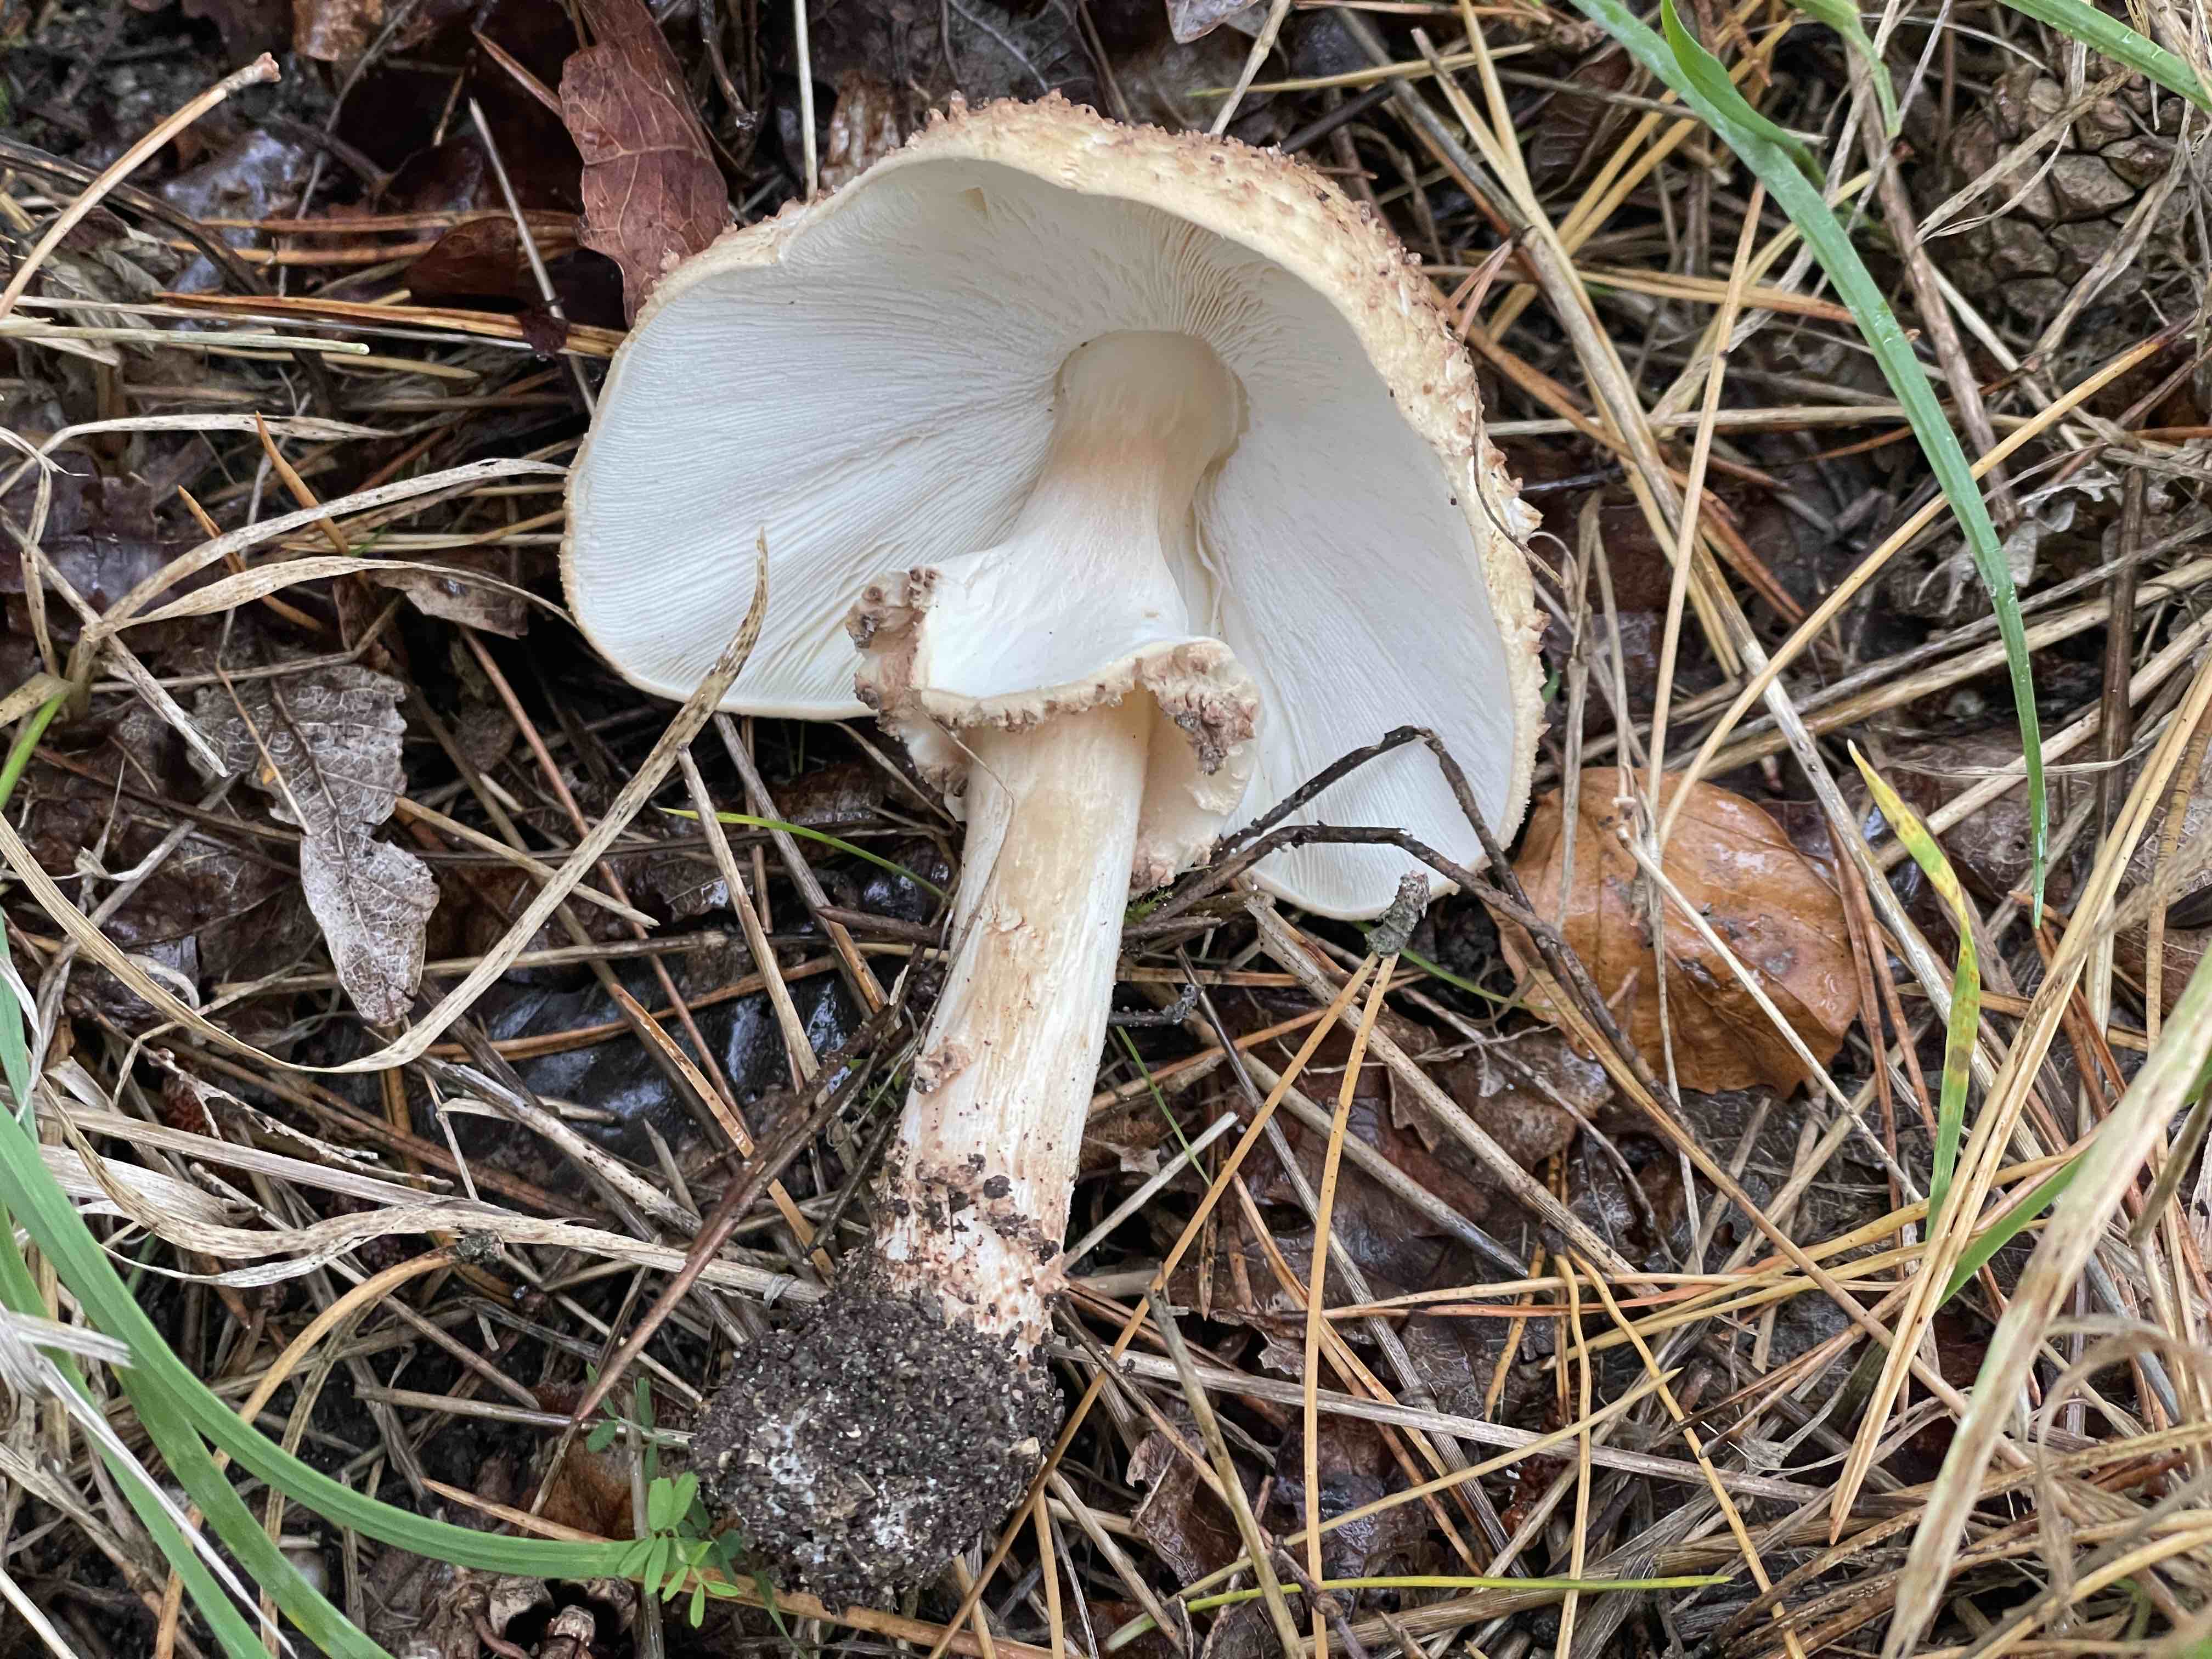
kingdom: Fungi
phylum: Basidiomycota
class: Agaricomycetes
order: Agaricales
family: Agaricaceae
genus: Echinoderma
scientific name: Echinoderma asperum
